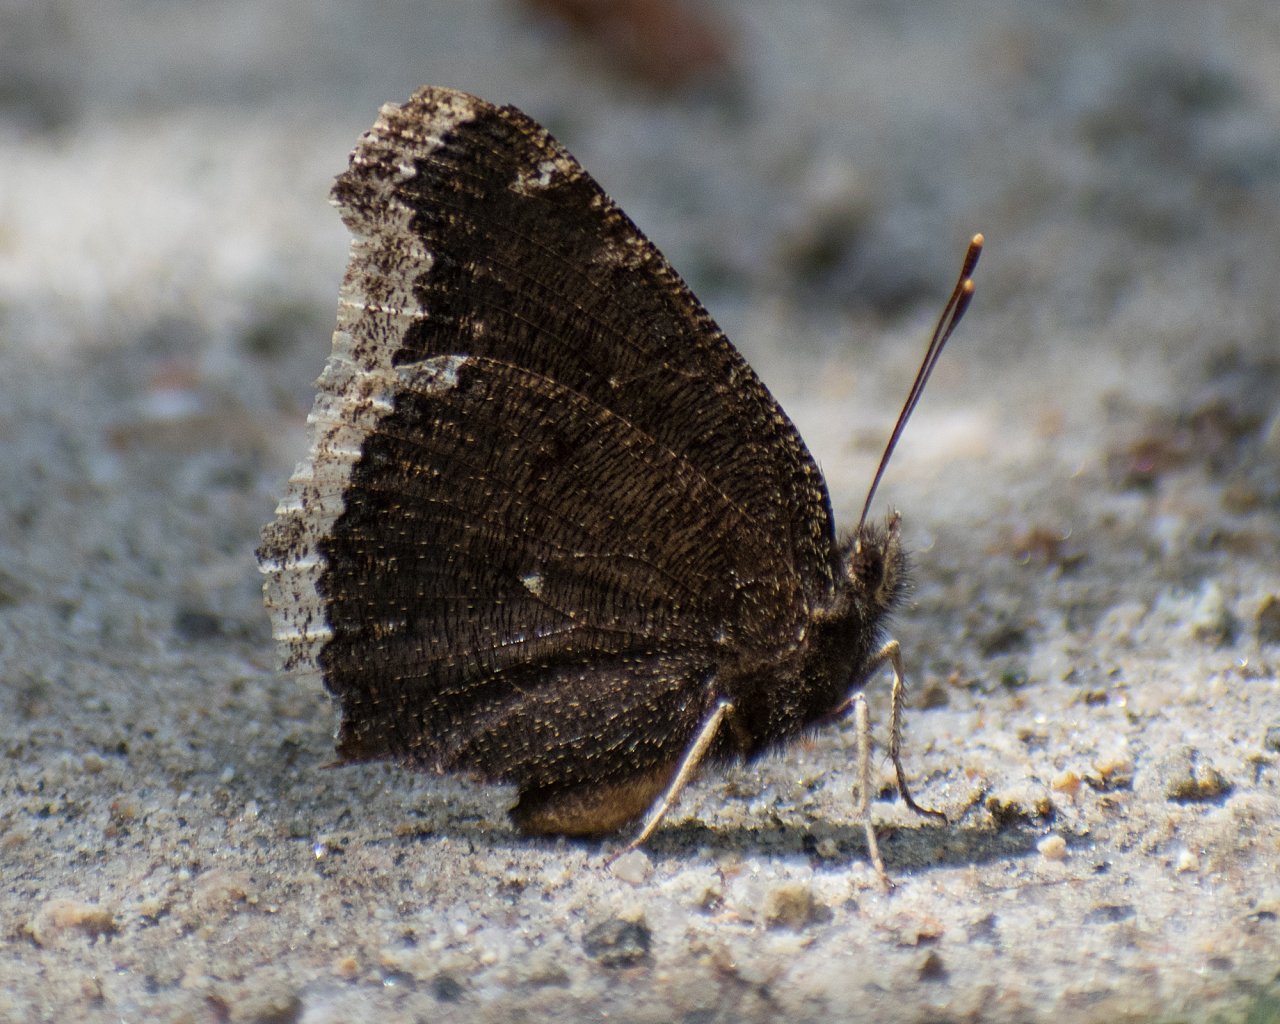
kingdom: Animalia
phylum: Arthropoda
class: Insecta
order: Lepidoptera
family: Nymphalidae
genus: Nymphalis
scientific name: Nymphalis antiopa
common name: Mourning Cloak
